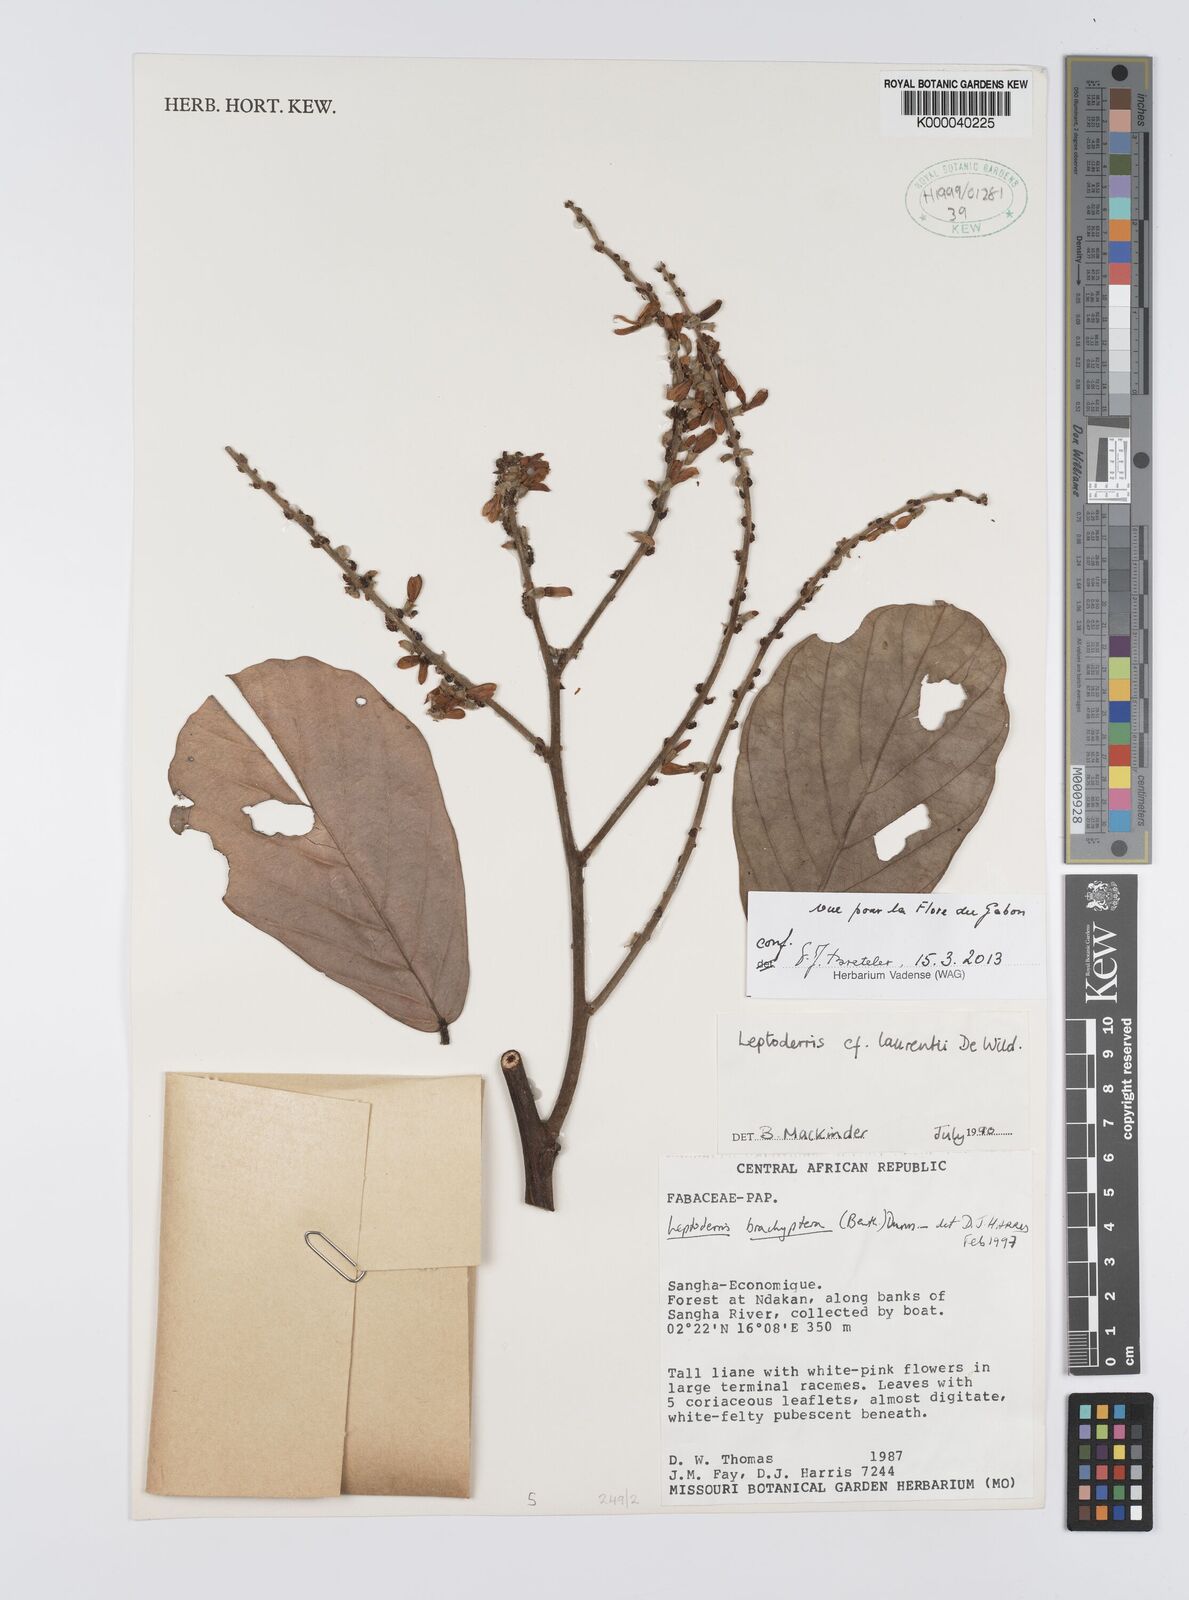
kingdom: Plantae
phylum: Tracheophyta
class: Magnoliopsida
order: Fabales
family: Fabaceae
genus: Leptoderris
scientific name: Leptoderris brachyptera
